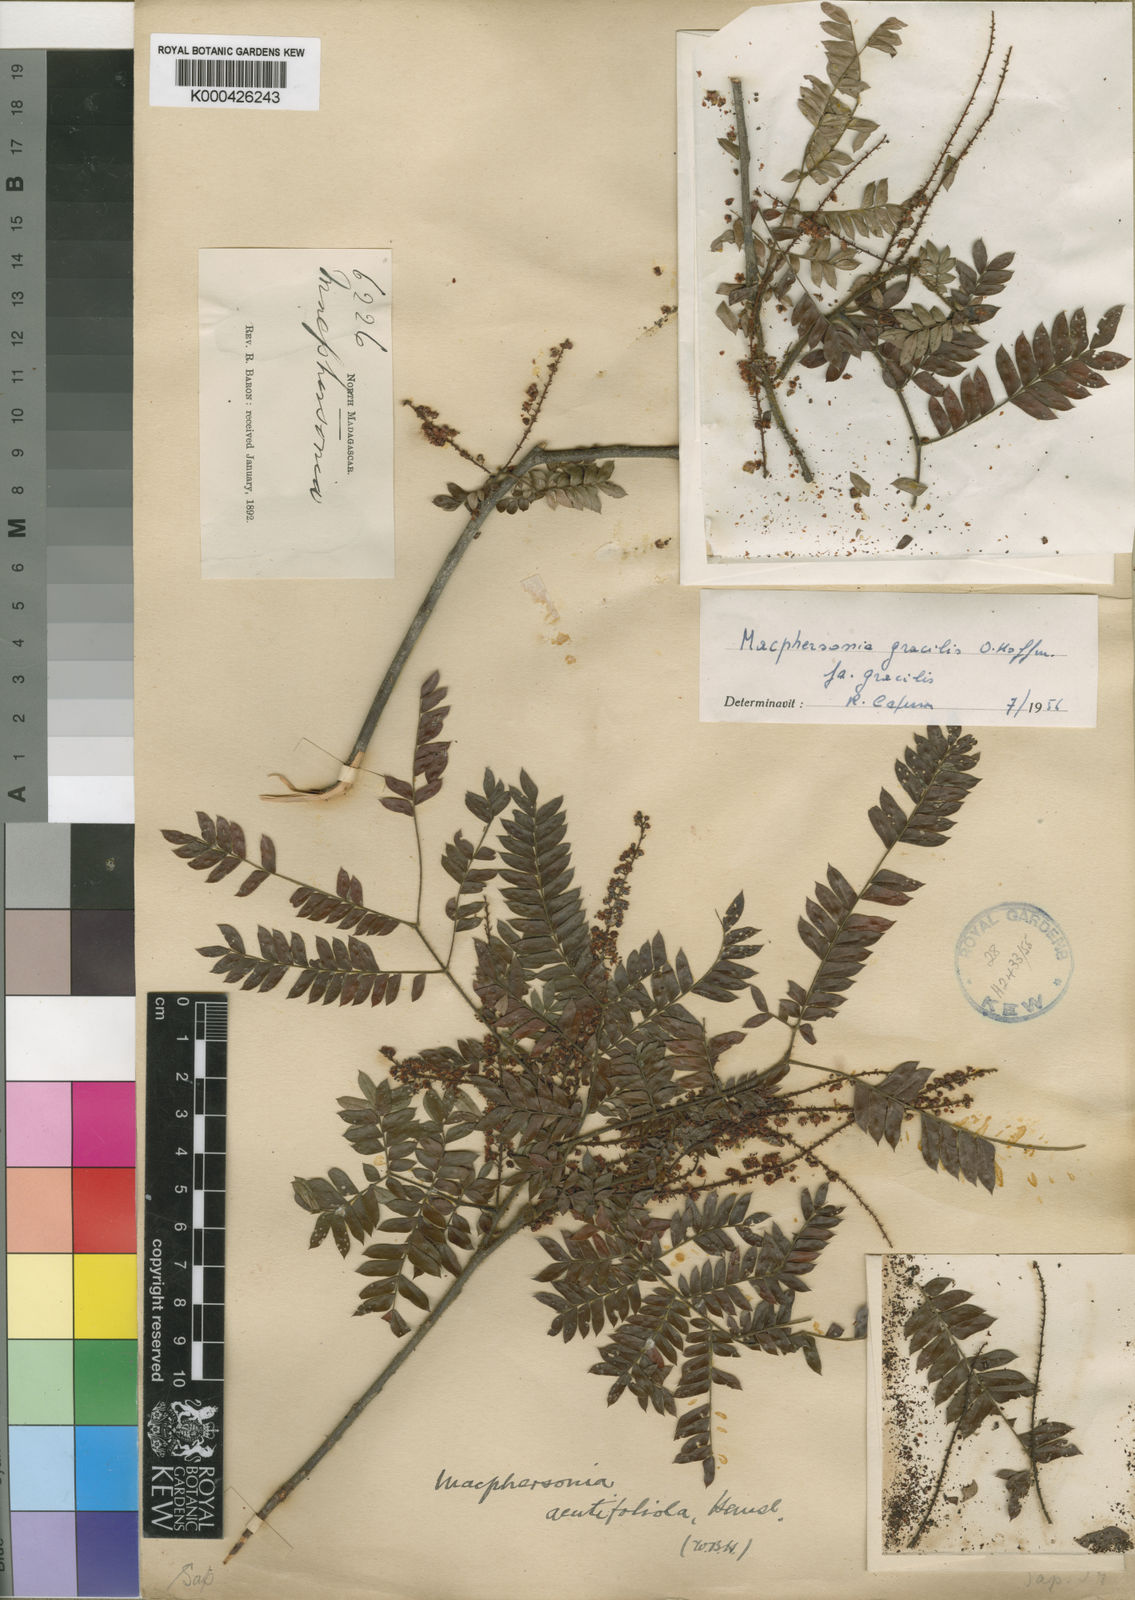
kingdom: Plantae
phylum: Tracheophyta
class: Magnoliopsida
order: Sapindales
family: Sapindaceae
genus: Macphersonia
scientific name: Macphersonia gracilis
